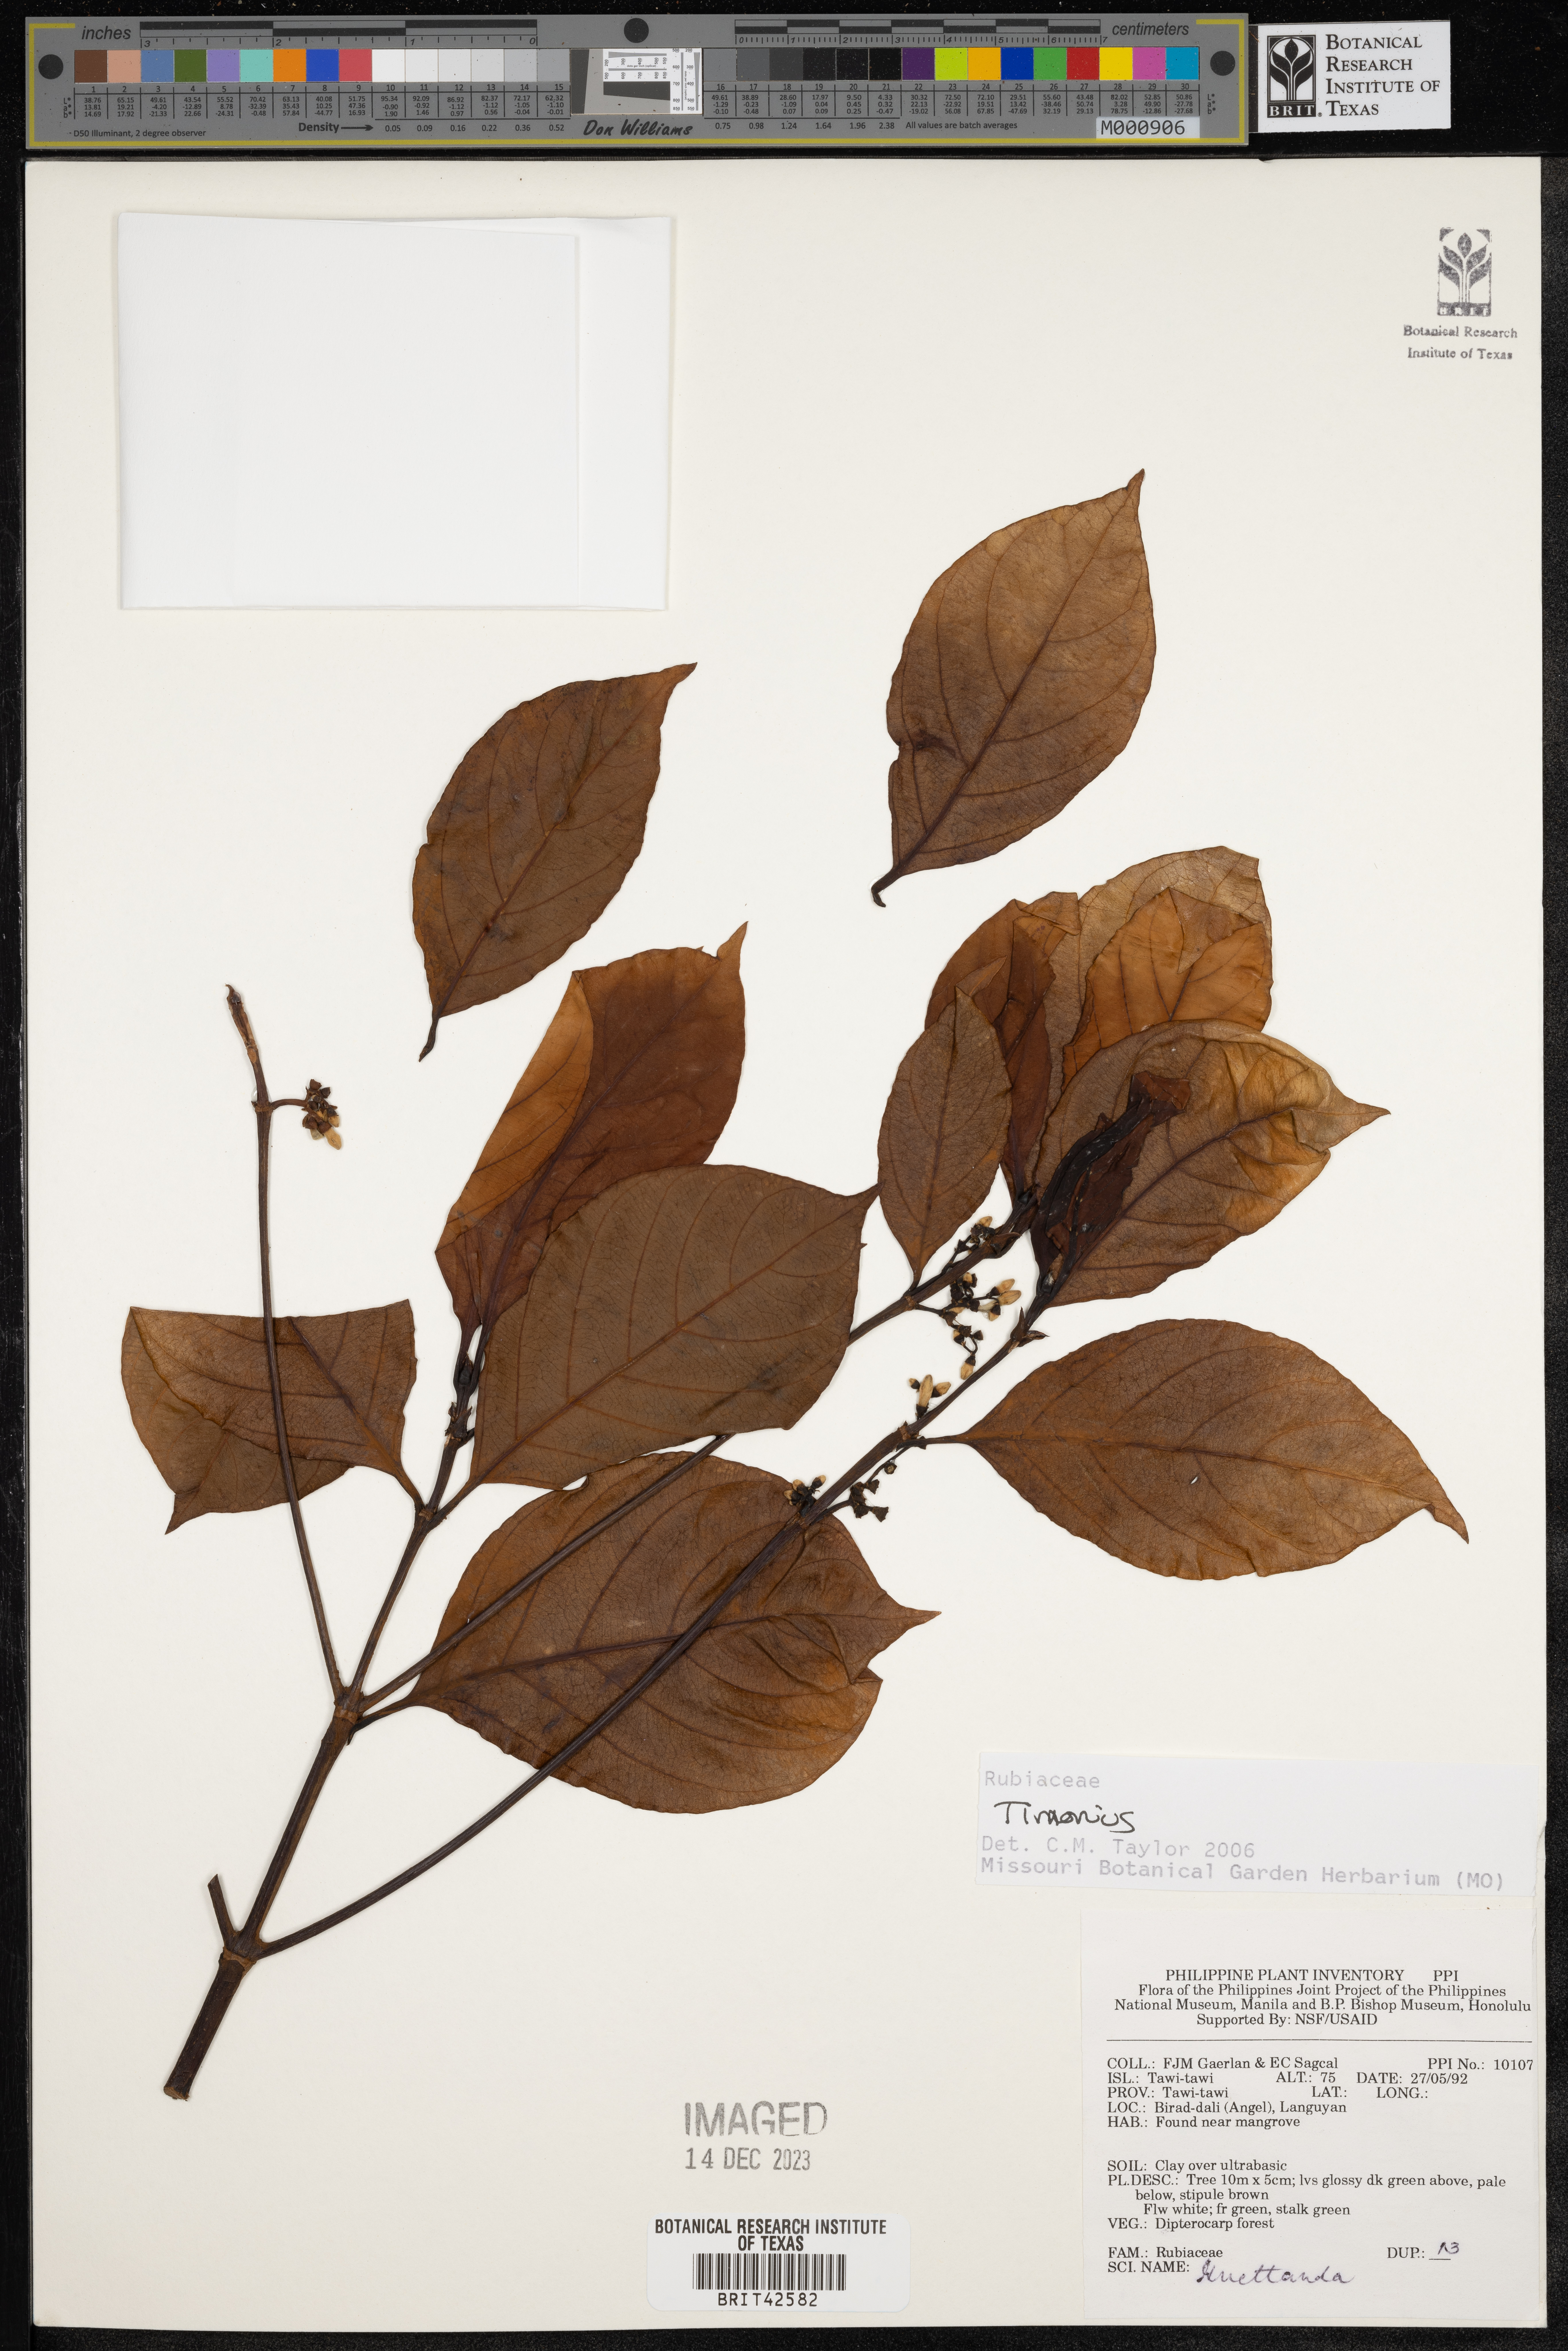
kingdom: Plantae
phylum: Tracheophyta
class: Magnoliopsida
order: Gentianales
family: Rubiaceae
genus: Timonius
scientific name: Timonius
